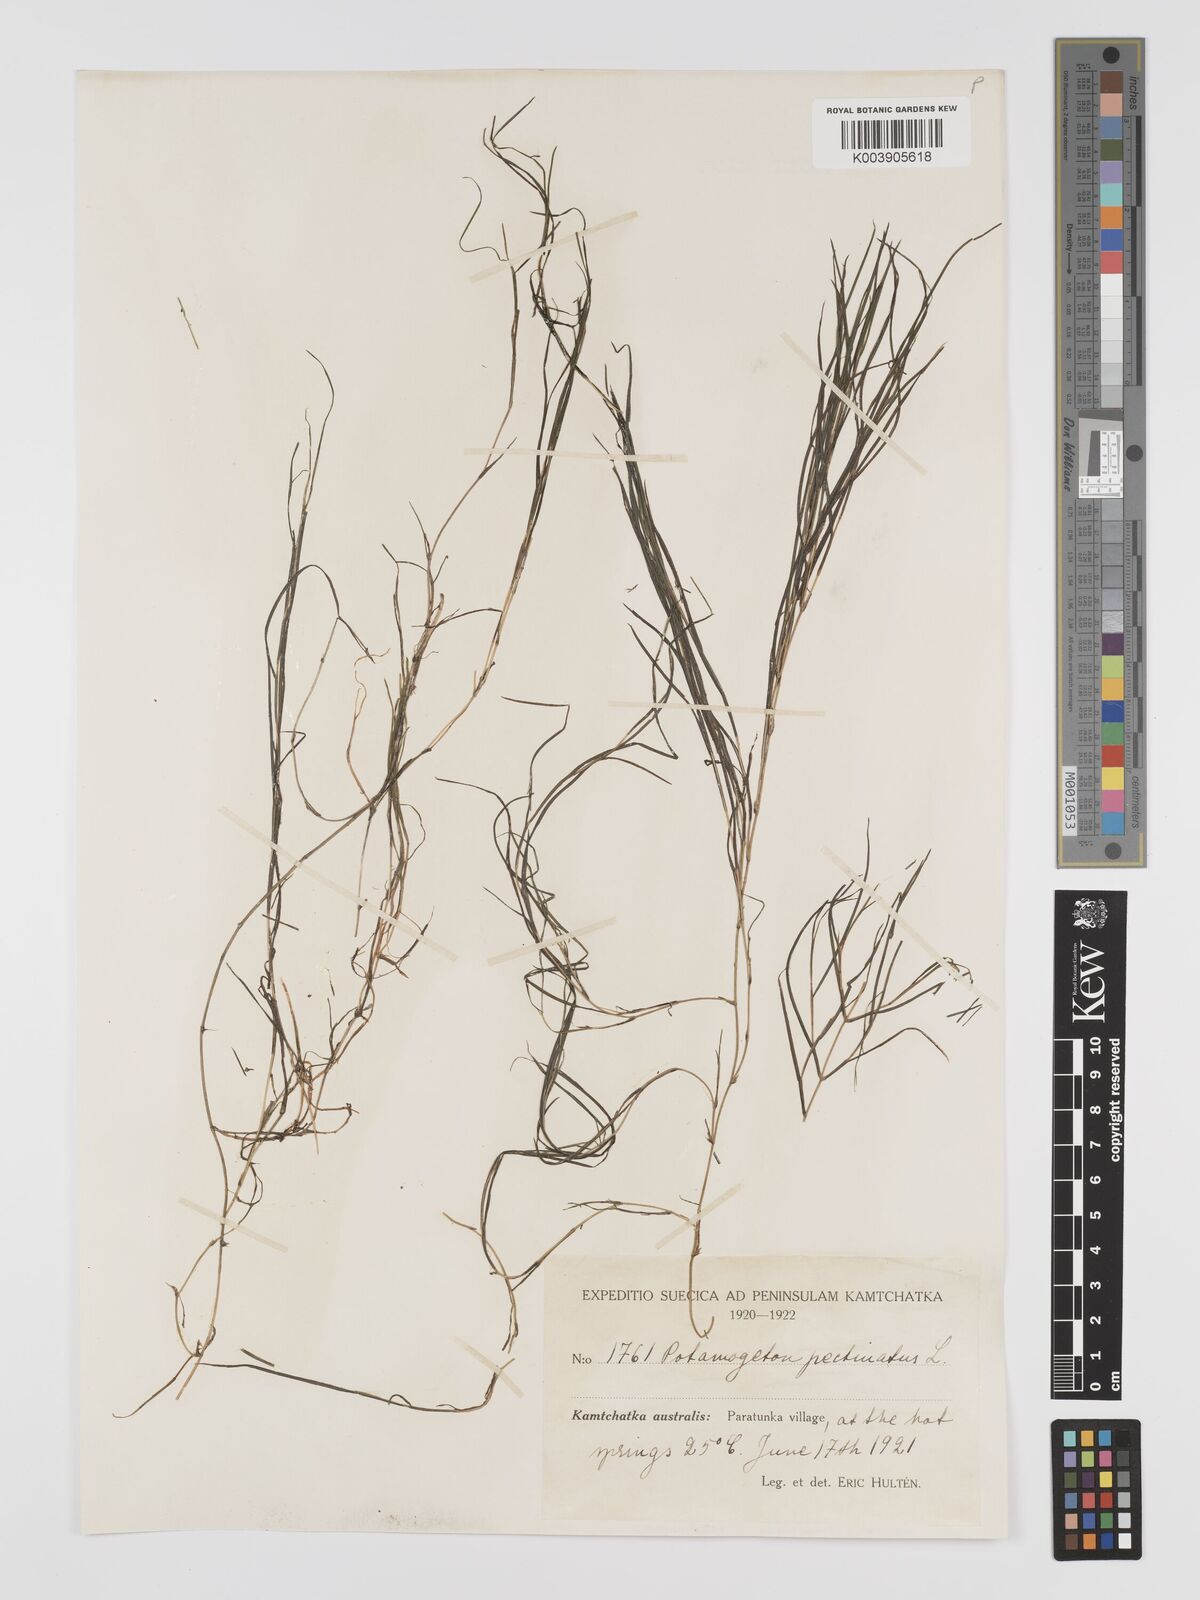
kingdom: Plantae
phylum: Tracheophyta
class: Liliopsida
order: Alismatales
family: Potamogetonaceae
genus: Stuckenia
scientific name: Stuckenia pectinata
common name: Sago pondweed
